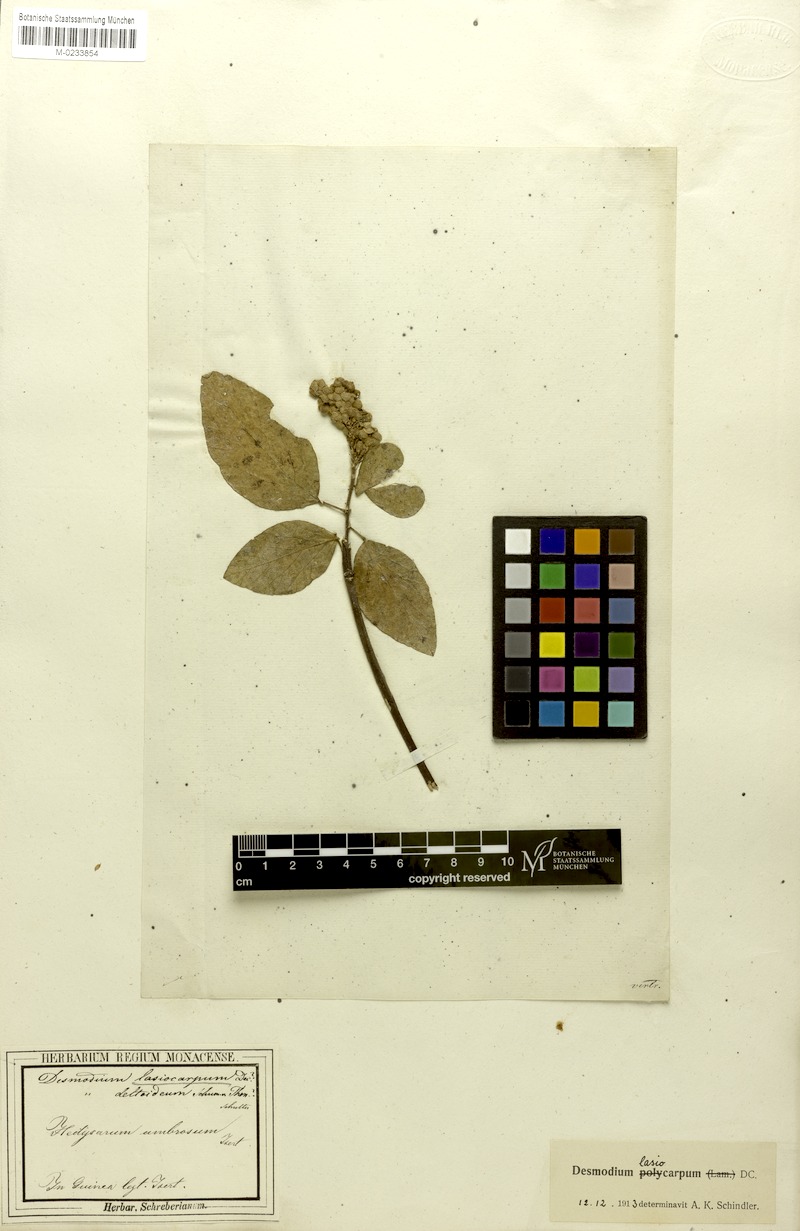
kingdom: Plantae
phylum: Tracheophyta
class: Magnoliopsida
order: Fabales
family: Fabaceae
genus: Polhillides
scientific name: Polhillides velutina
